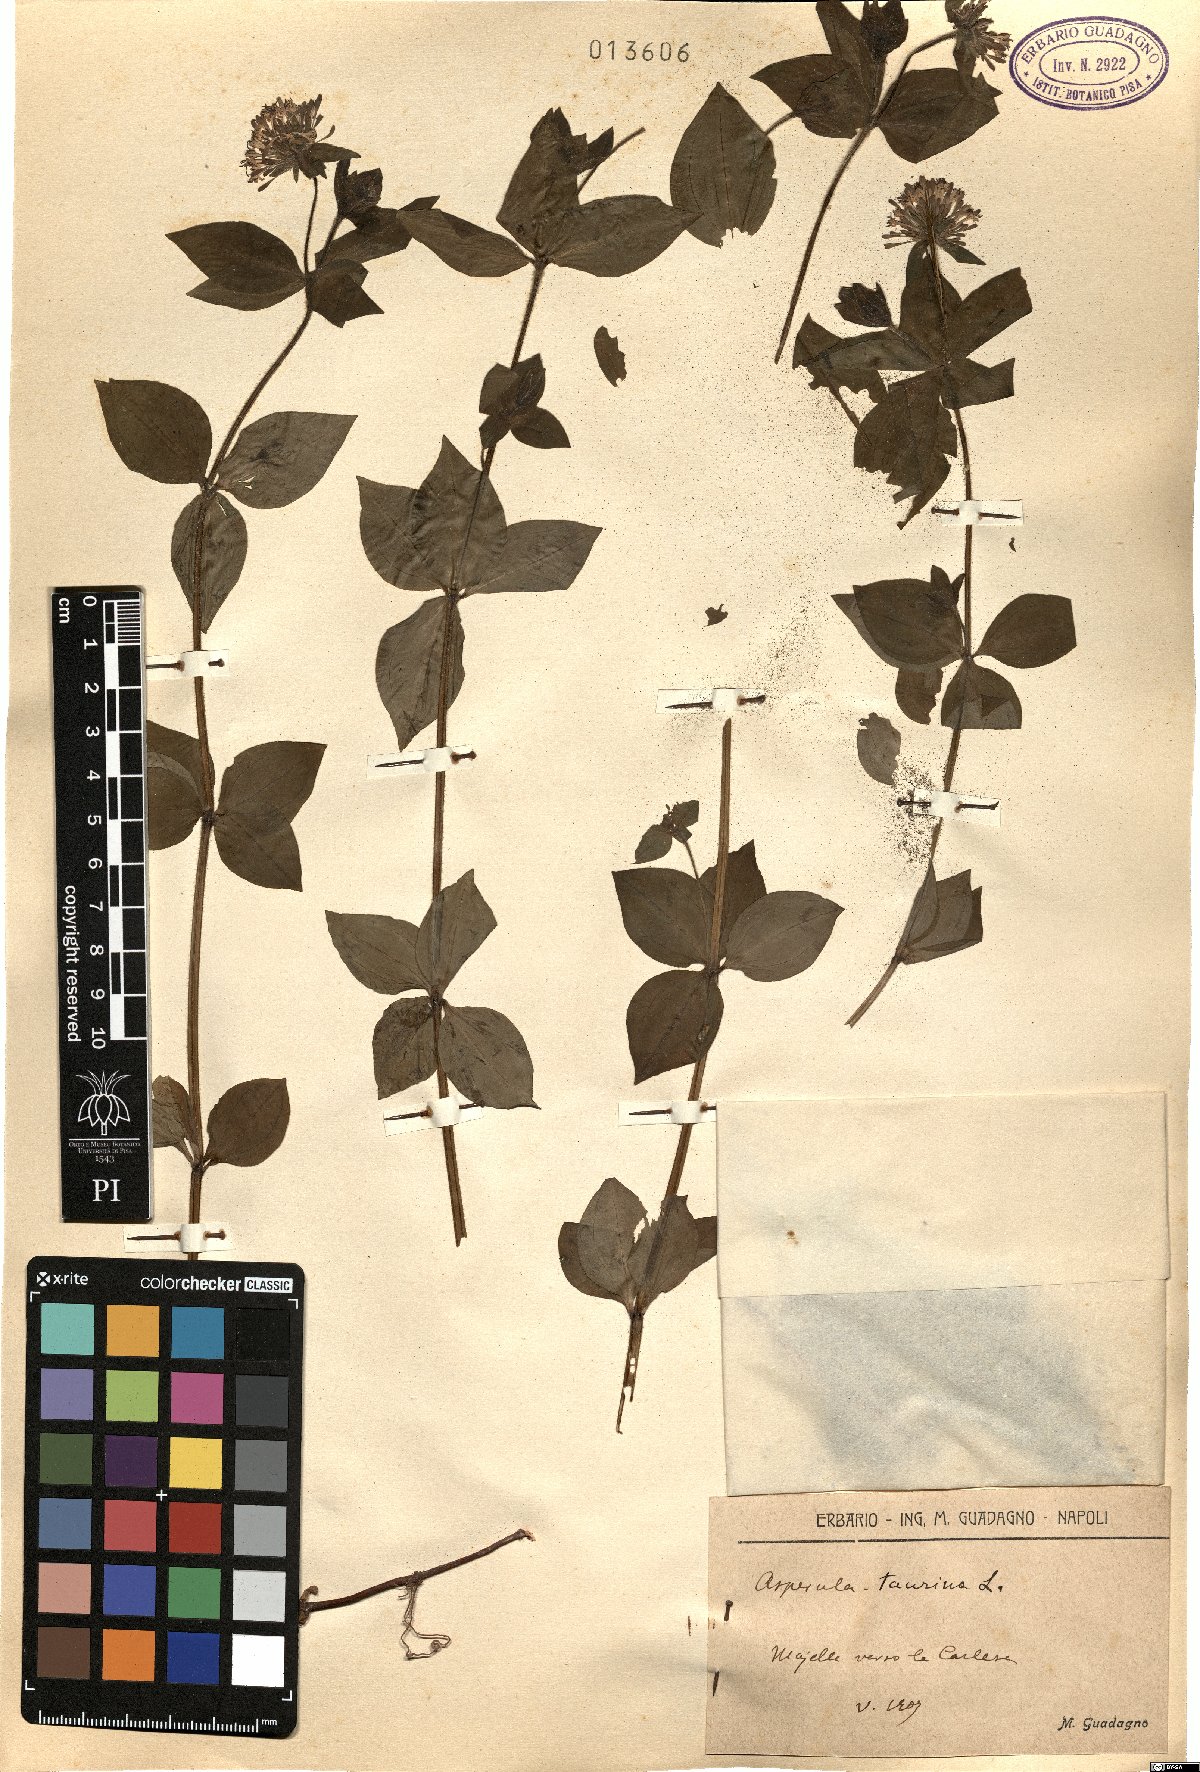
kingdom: Plantae
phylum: Tracheophyta
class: Magnoliopsida
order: Gentianales
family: Rubiaceae
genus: Asperula
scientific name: Asperula taurina
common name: Pink woodruff
